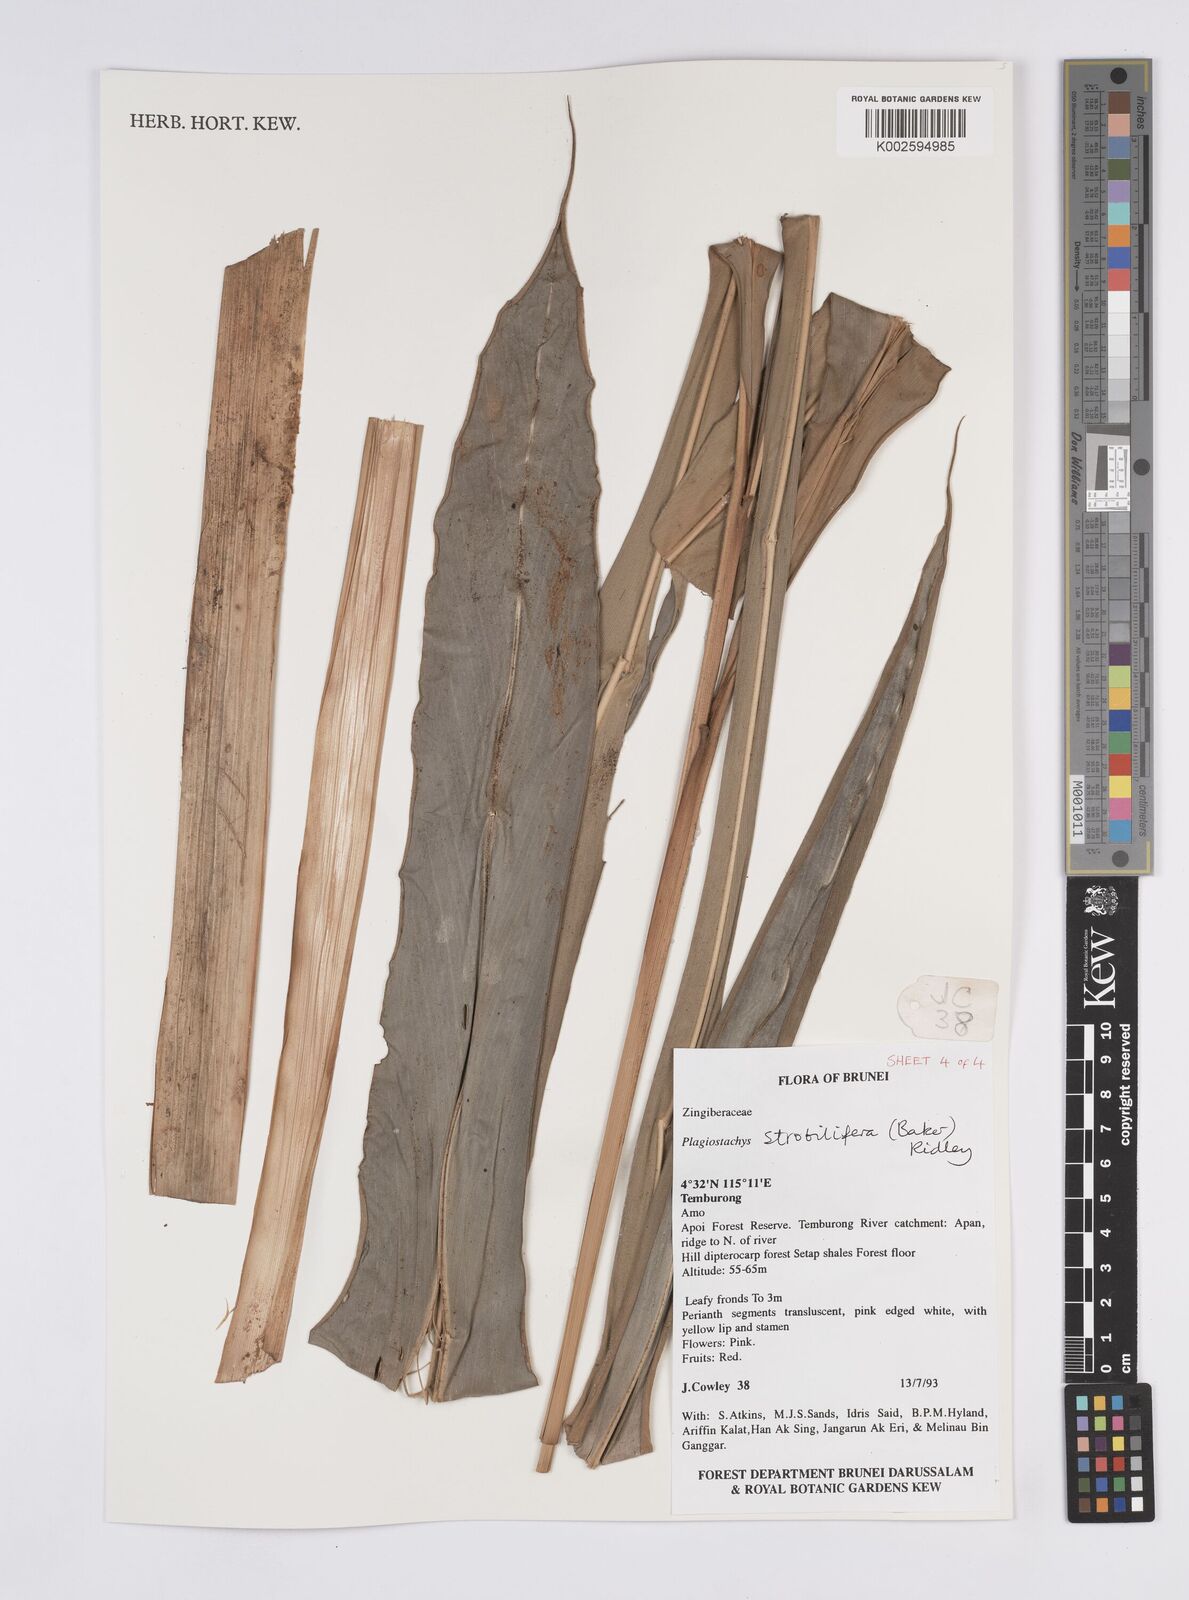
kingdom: Plantae
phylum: Tracheophyta
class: Liliopsida
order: Zingiberales
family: Zingiberaceae
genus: Plagiostachys
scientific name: Plagiostachys strobilifera
